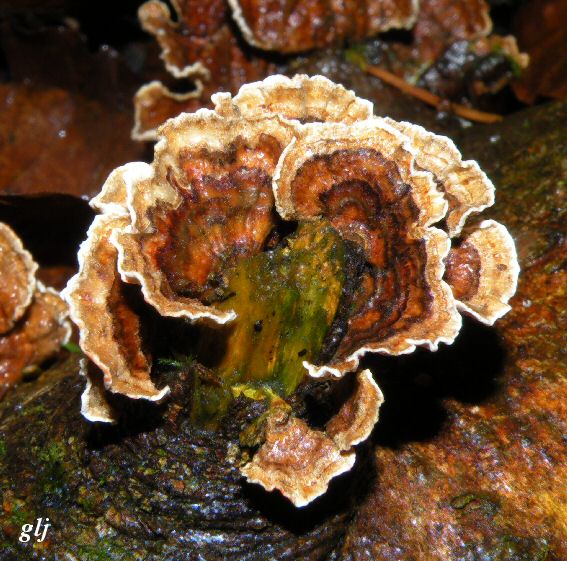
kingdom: Fungi
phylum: Basidiomycota
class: Agaricomycetes
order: Russulales
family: Stereaceae
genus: Stereum
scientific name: Stereum subtomentosum
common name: smuk lædersvamp
